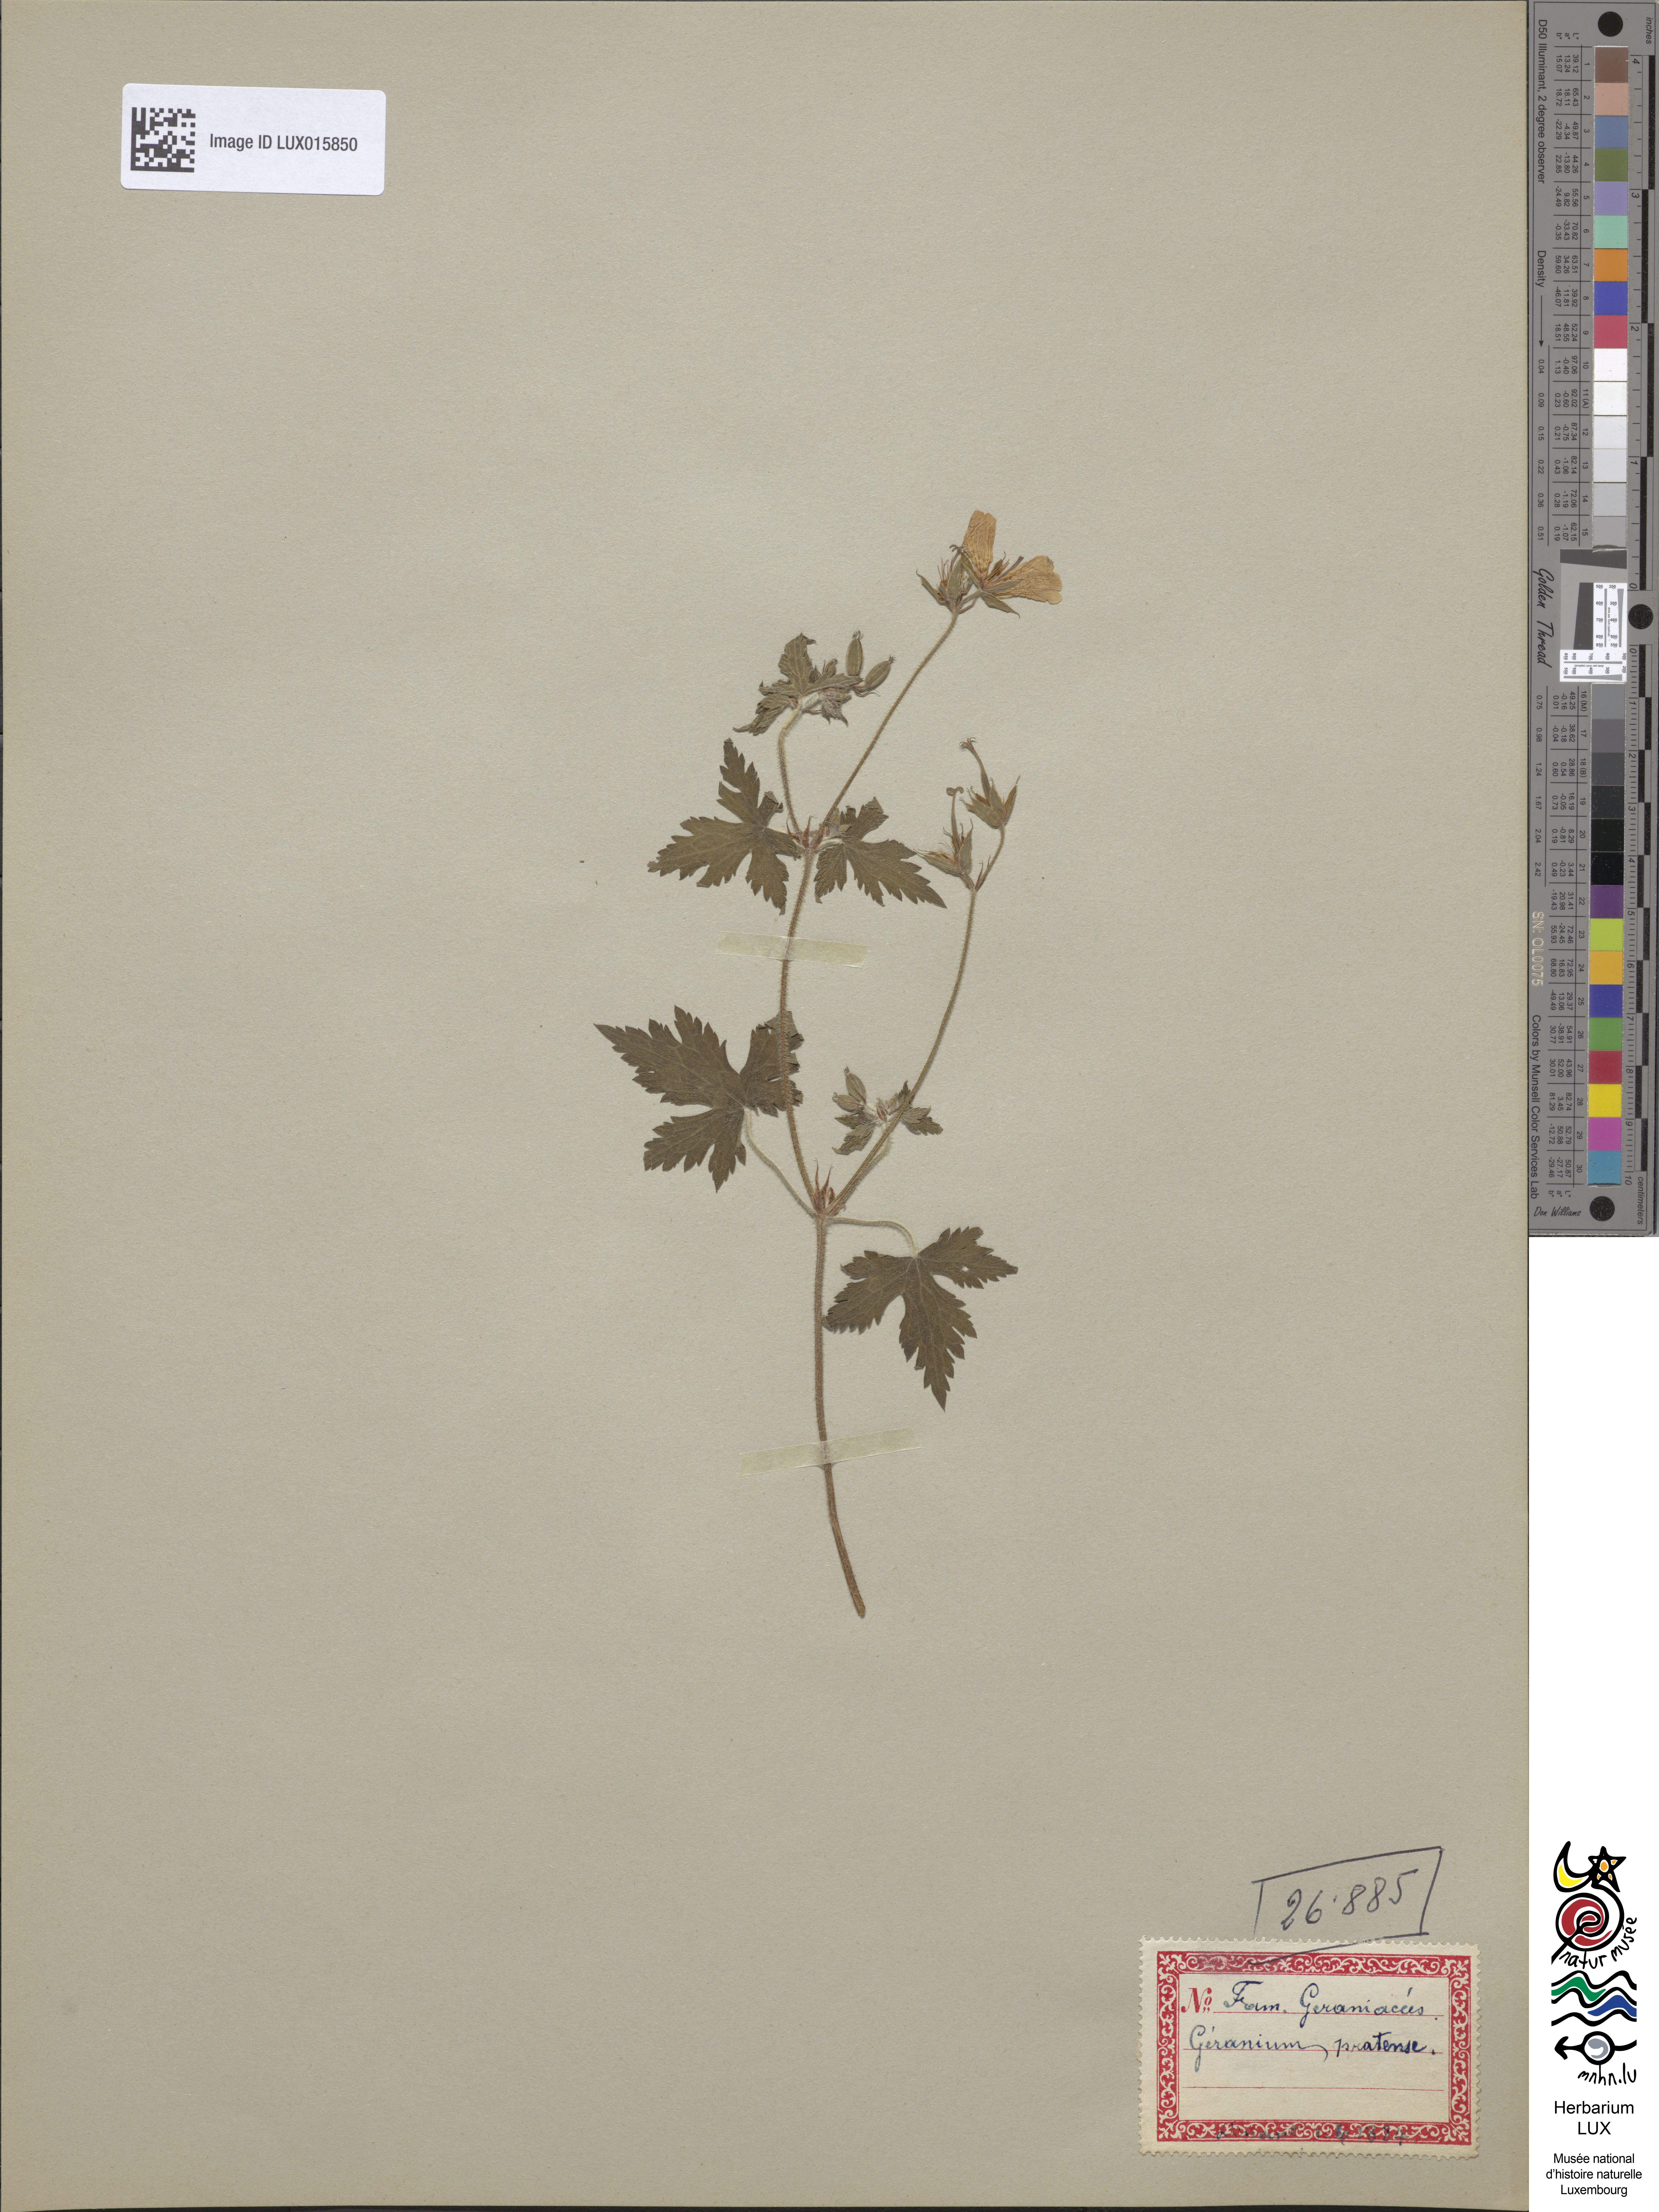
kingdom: Plantae
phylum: Tracheophyta
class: Magnoliopsida
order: Geraniales
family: Geraniaceae
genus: Geranium
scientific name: Geranium pratense
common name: Meadow crane's-bill
